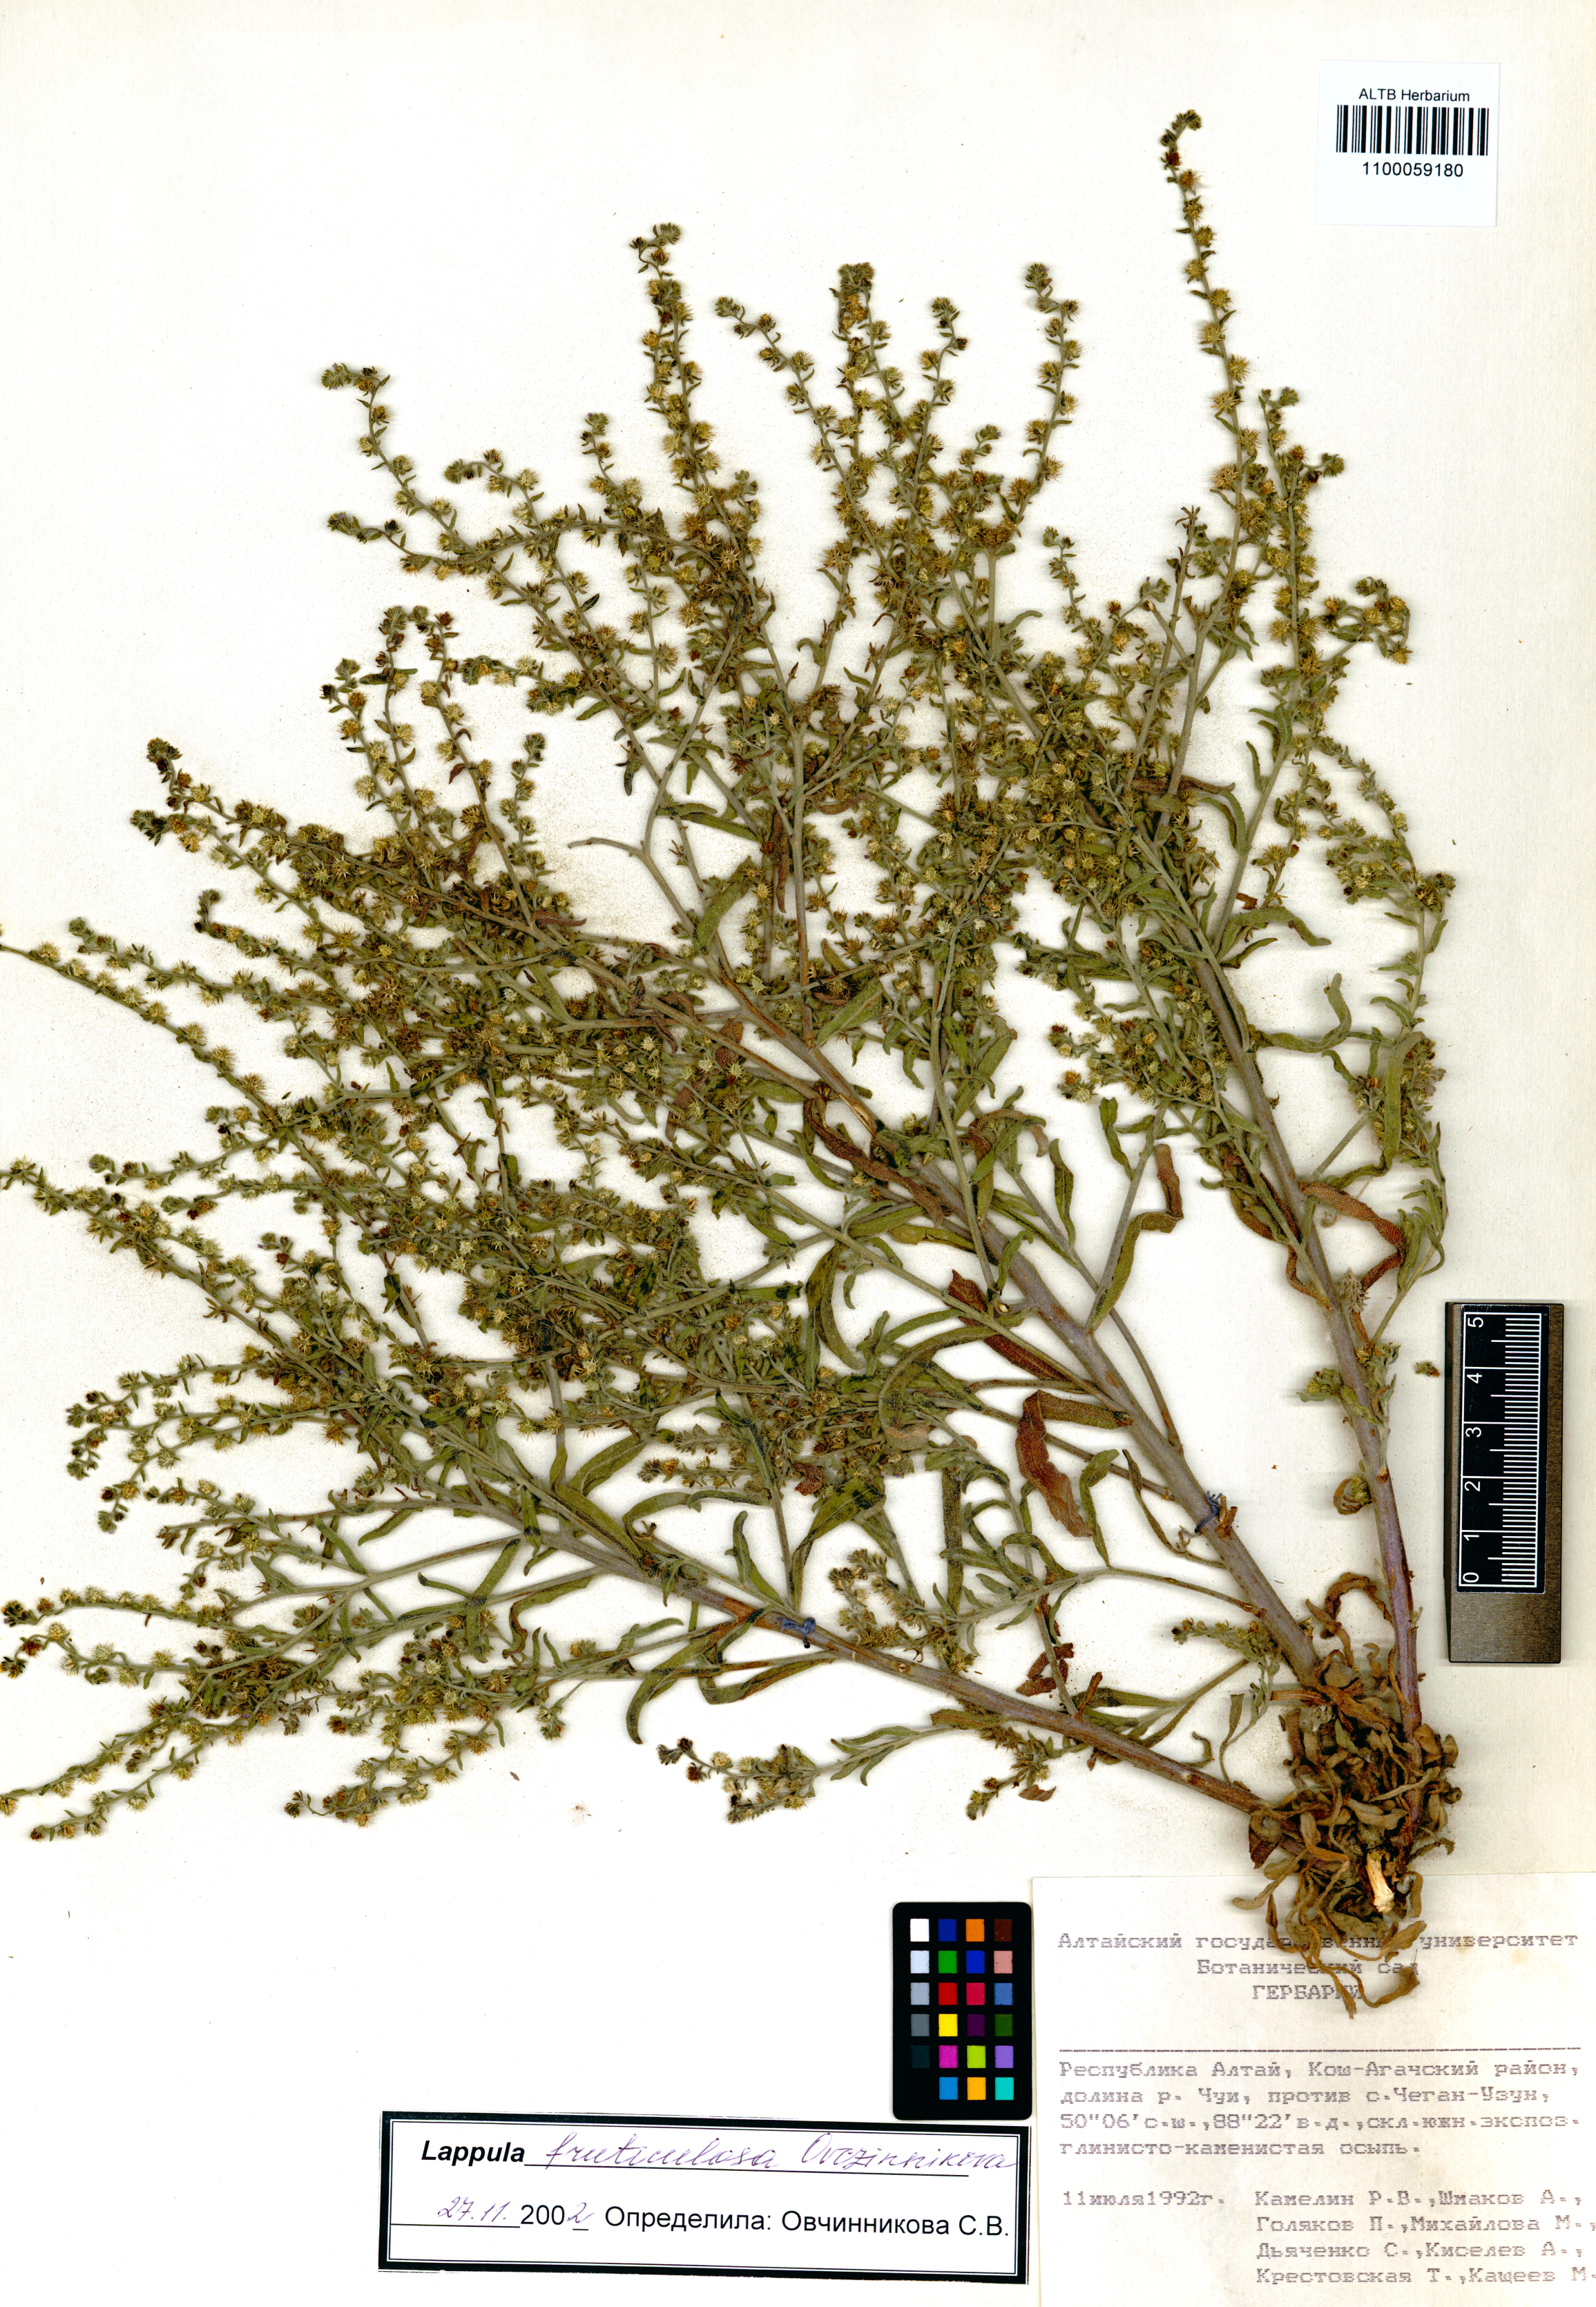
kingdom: Plantae
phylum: Tracheophyta
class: Magnoliopsida
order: Boraginales
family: Boraginaceae
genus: Lappula
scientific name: Lappula fruticulosa
